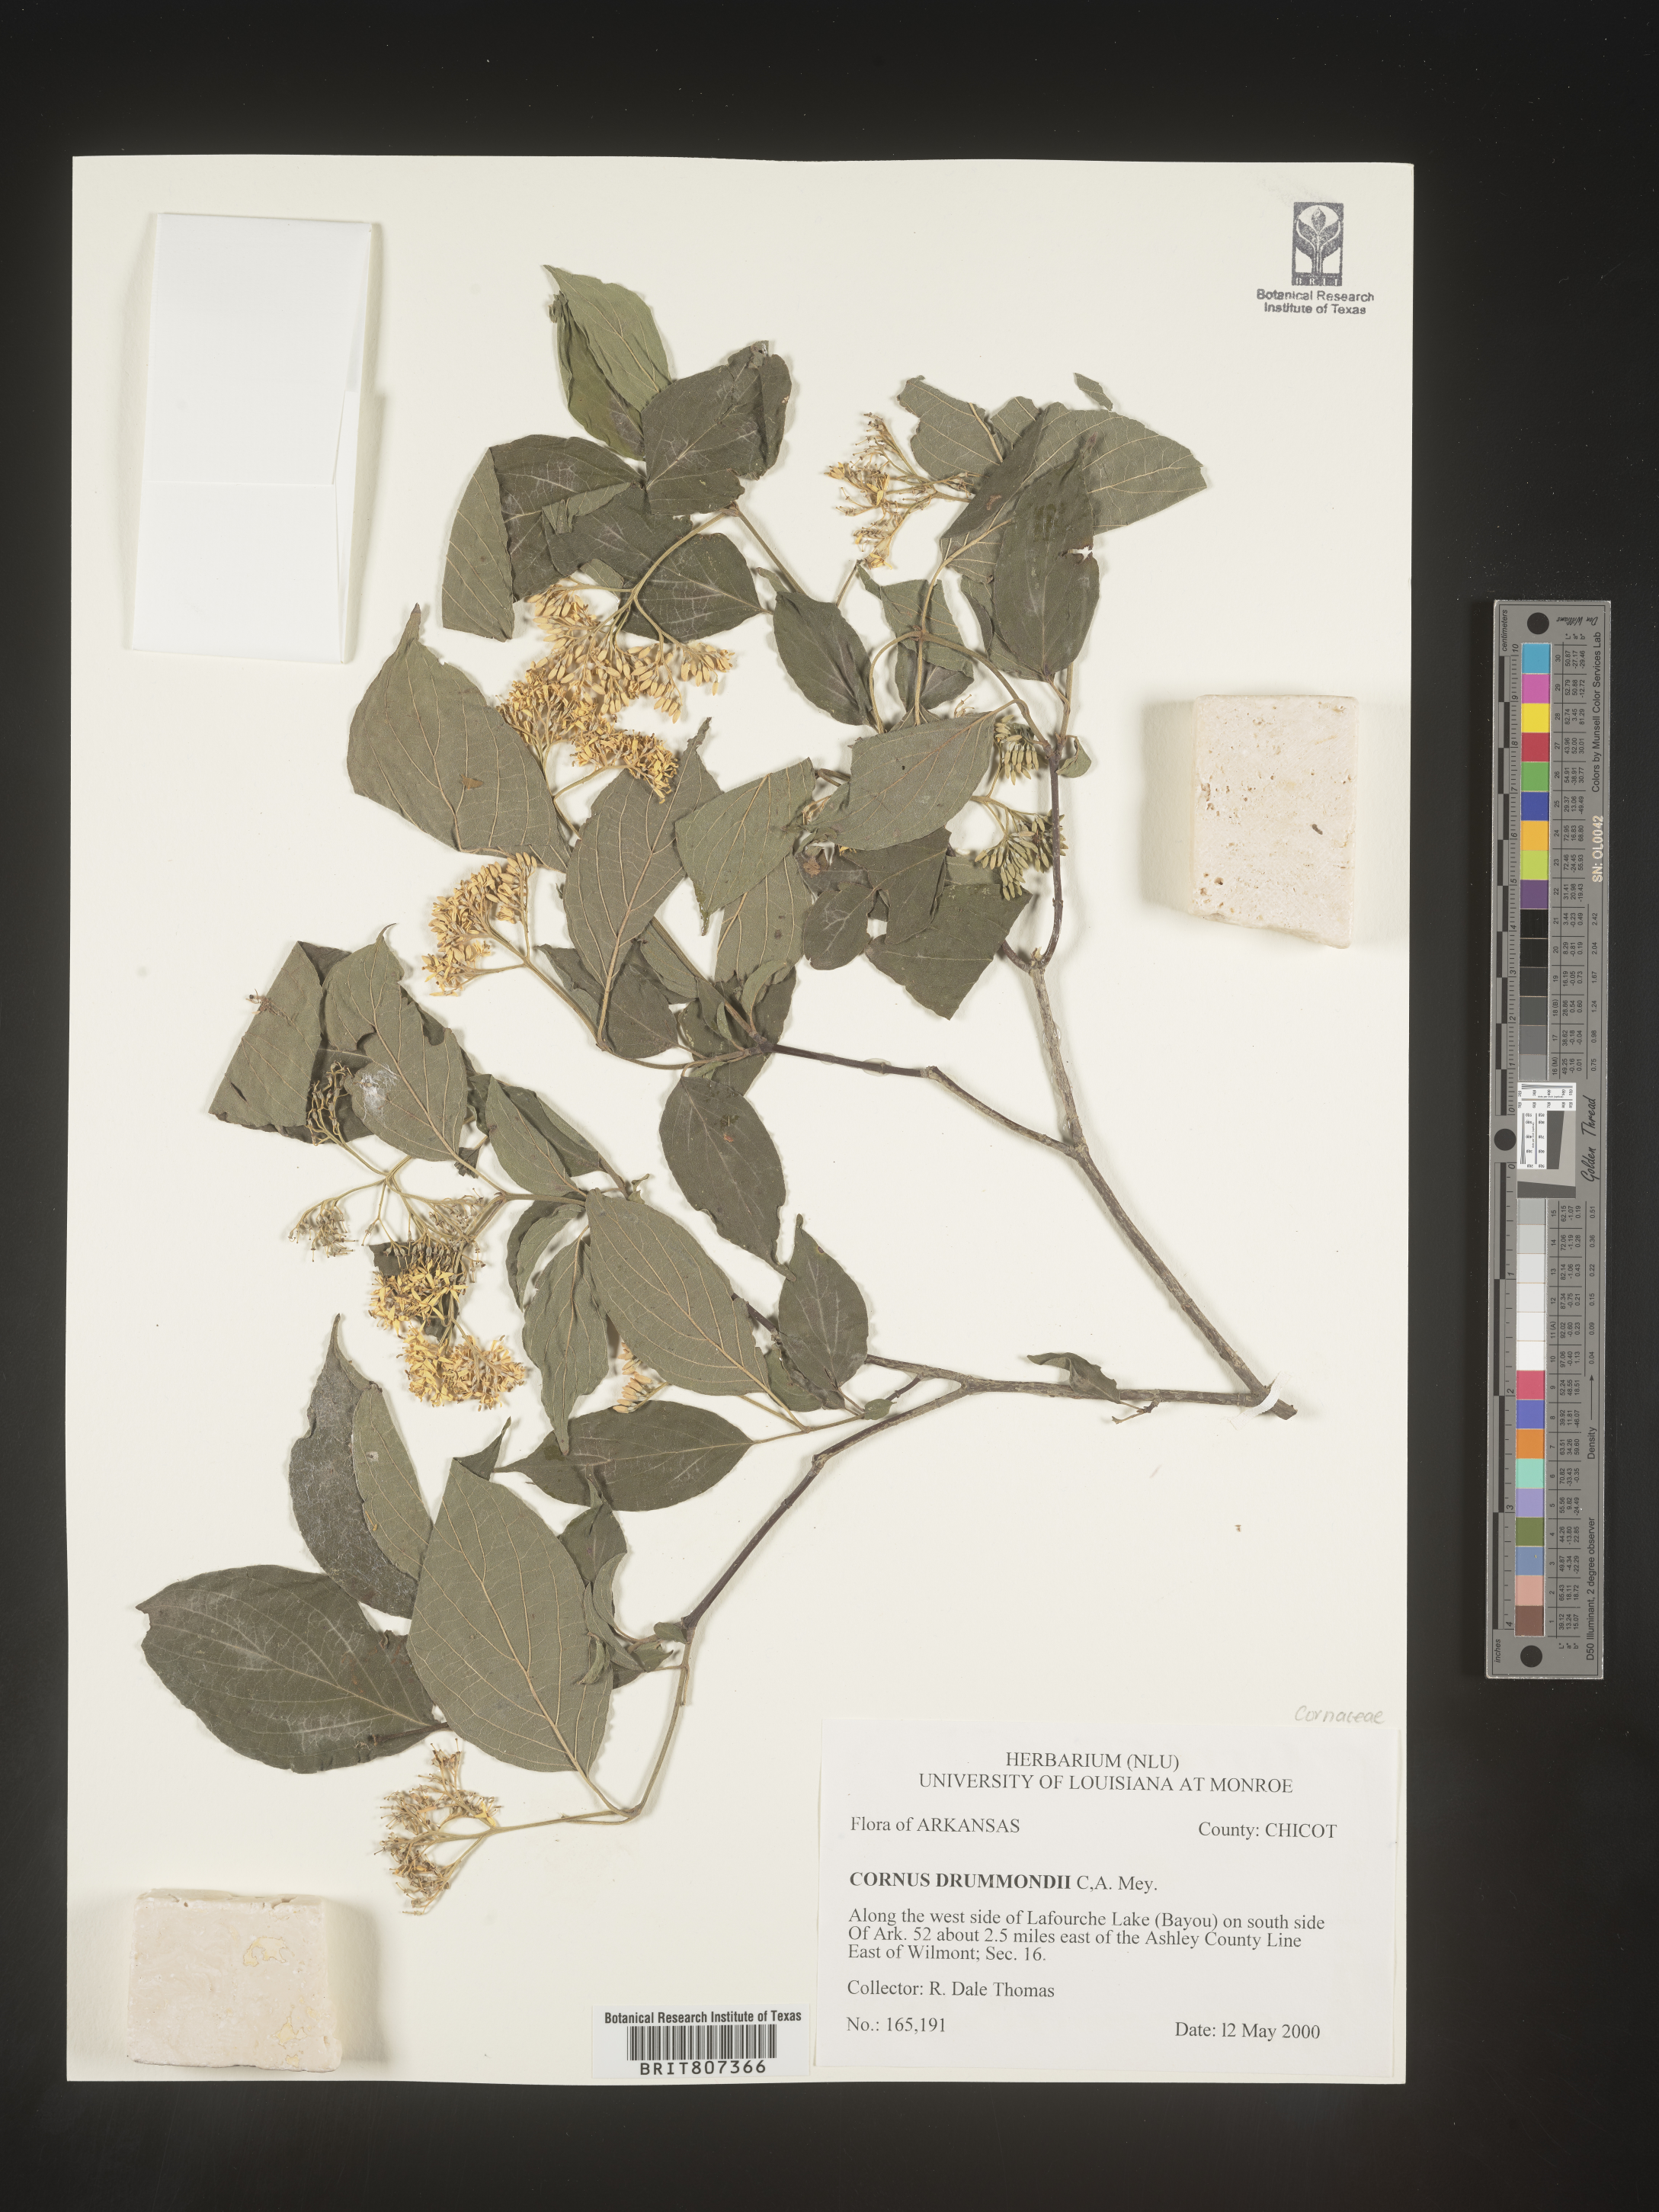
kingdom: Plantae
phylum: Tracheophyta
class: Magnoliopsida
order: Cornales
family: Cornaceae
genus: Cornus
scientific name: Cornus drummondii
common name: Rough-leaf dogwood
